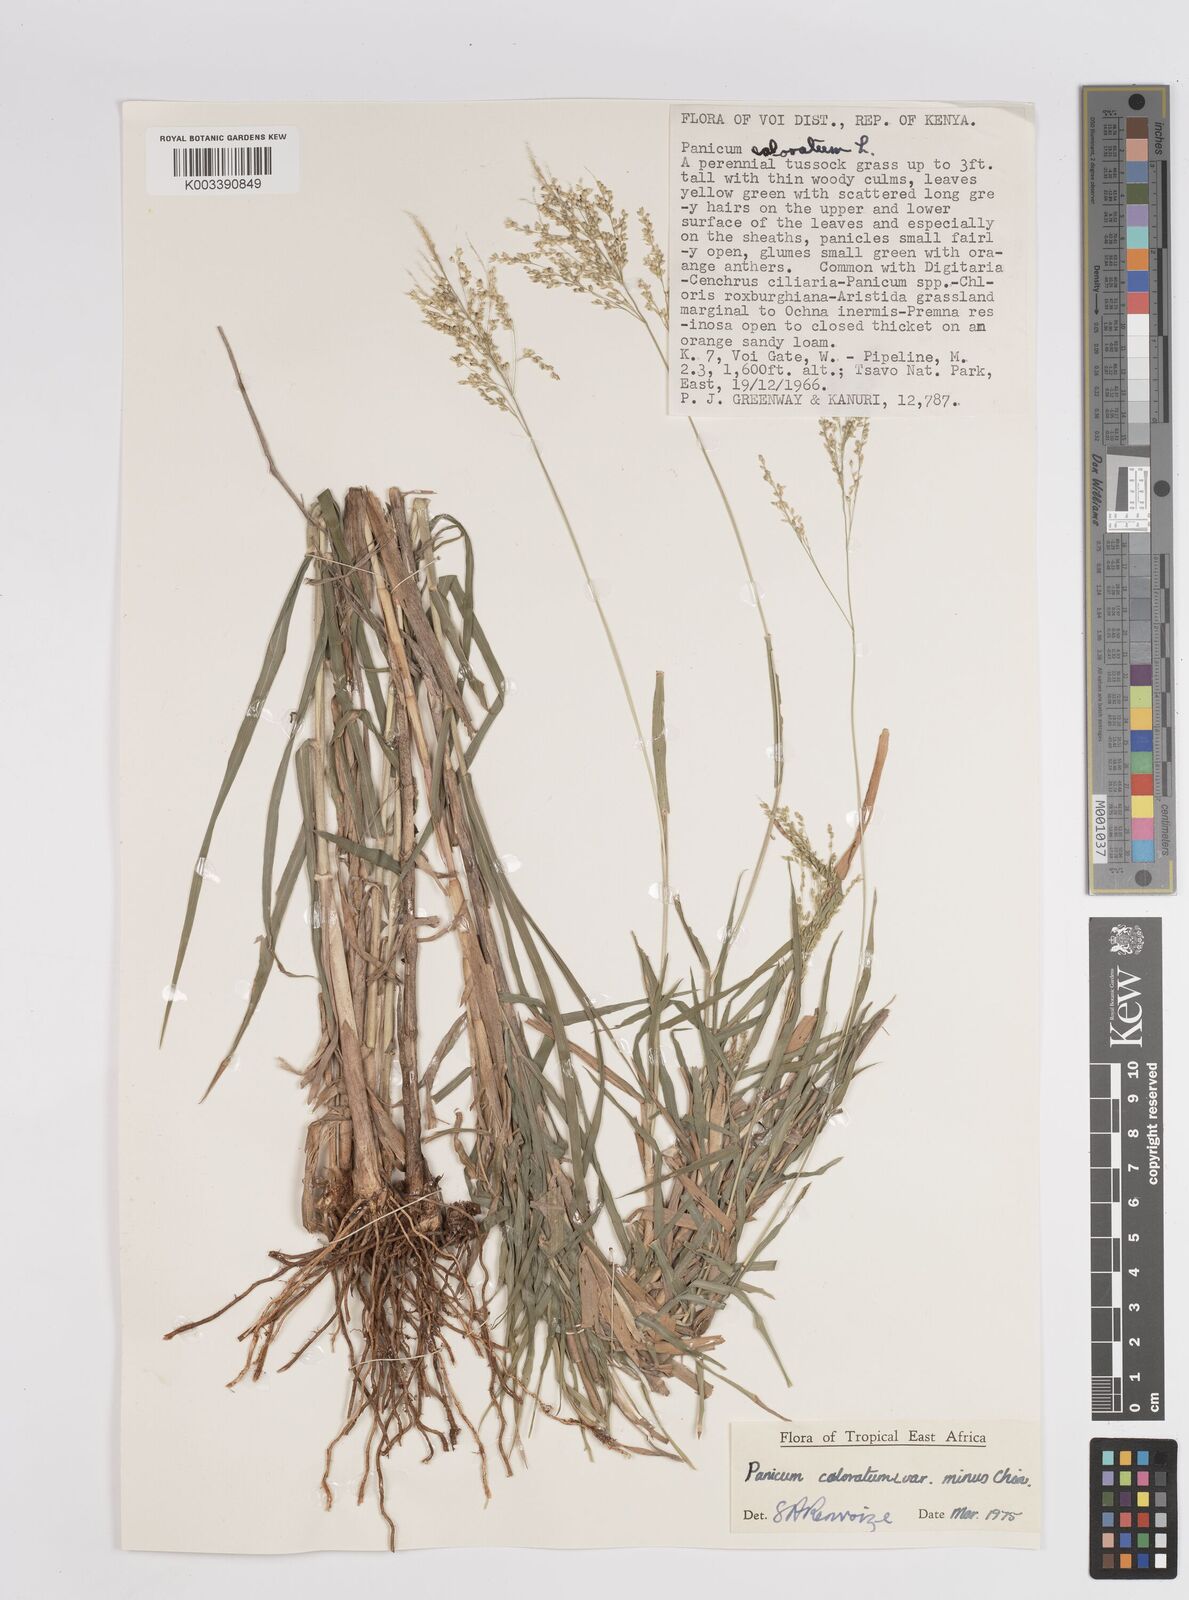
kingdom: Plantae
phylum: Tracheophyta
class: Liliopsida
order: Poales
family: Poaceae
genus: Panicum
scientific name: Panicum coloratum
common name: Kleingrass
